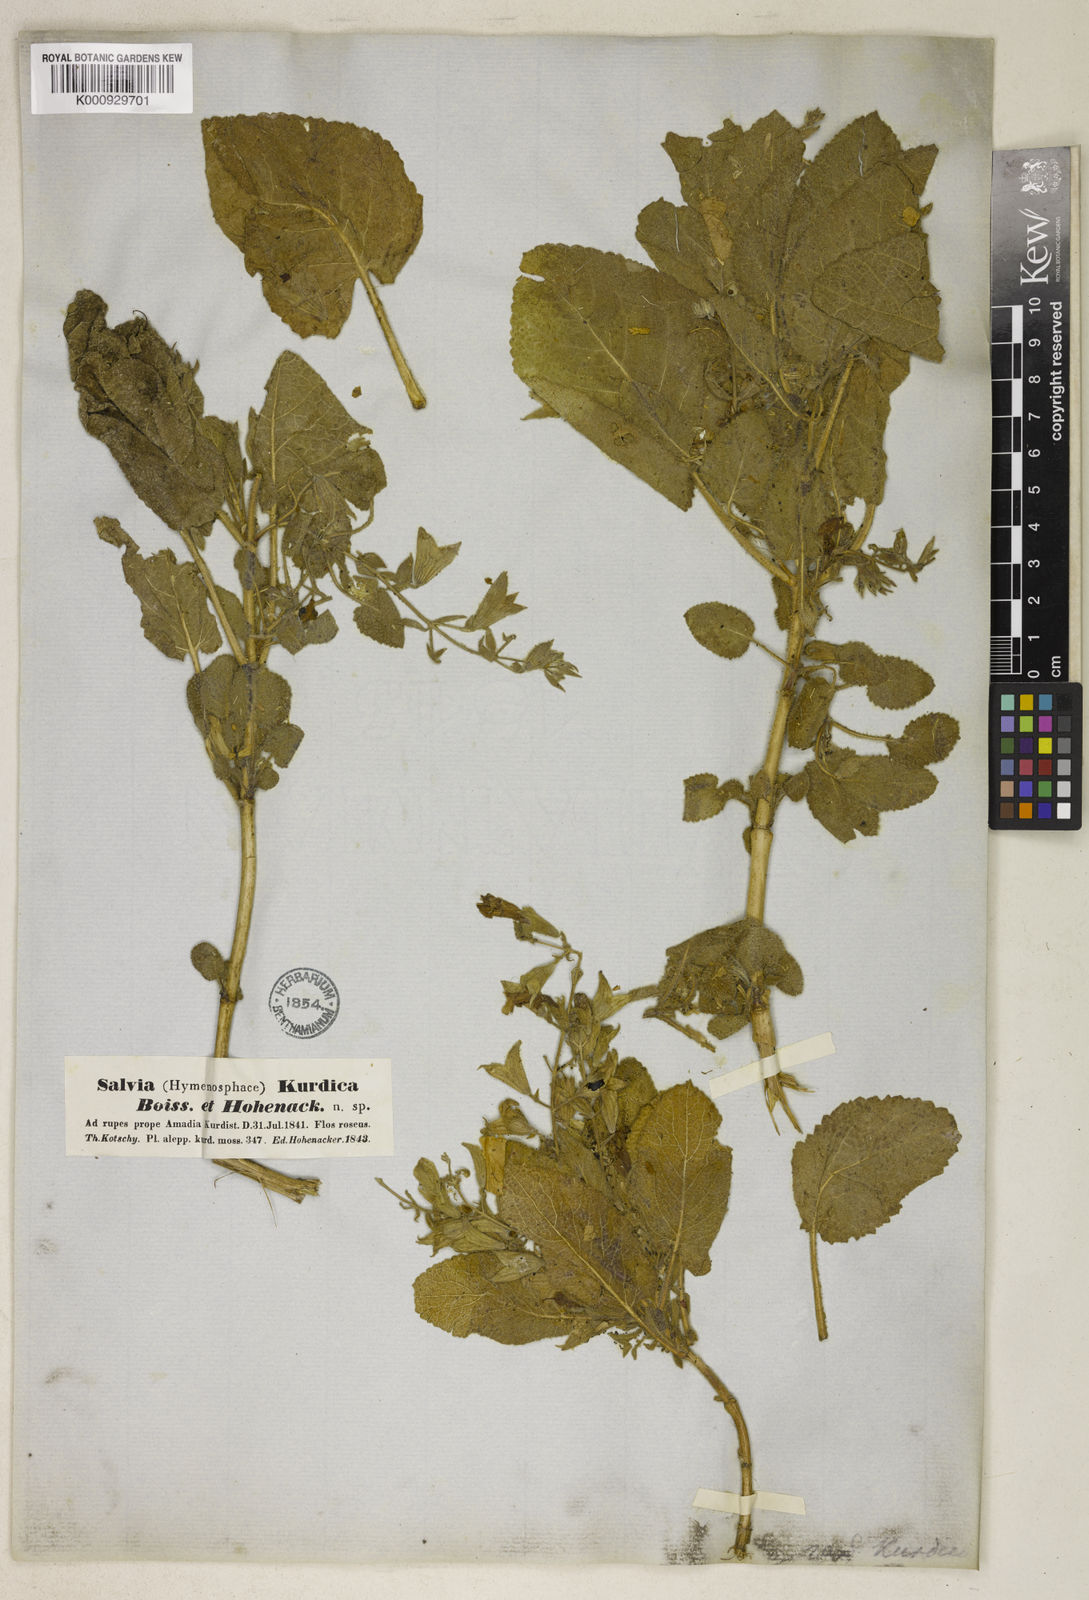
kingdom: Plantae
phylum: Tracheophyta
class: Magnoliopsida
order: Lamiales
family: Lamiaceae
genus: Salvia
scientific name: Salvia kurdica
